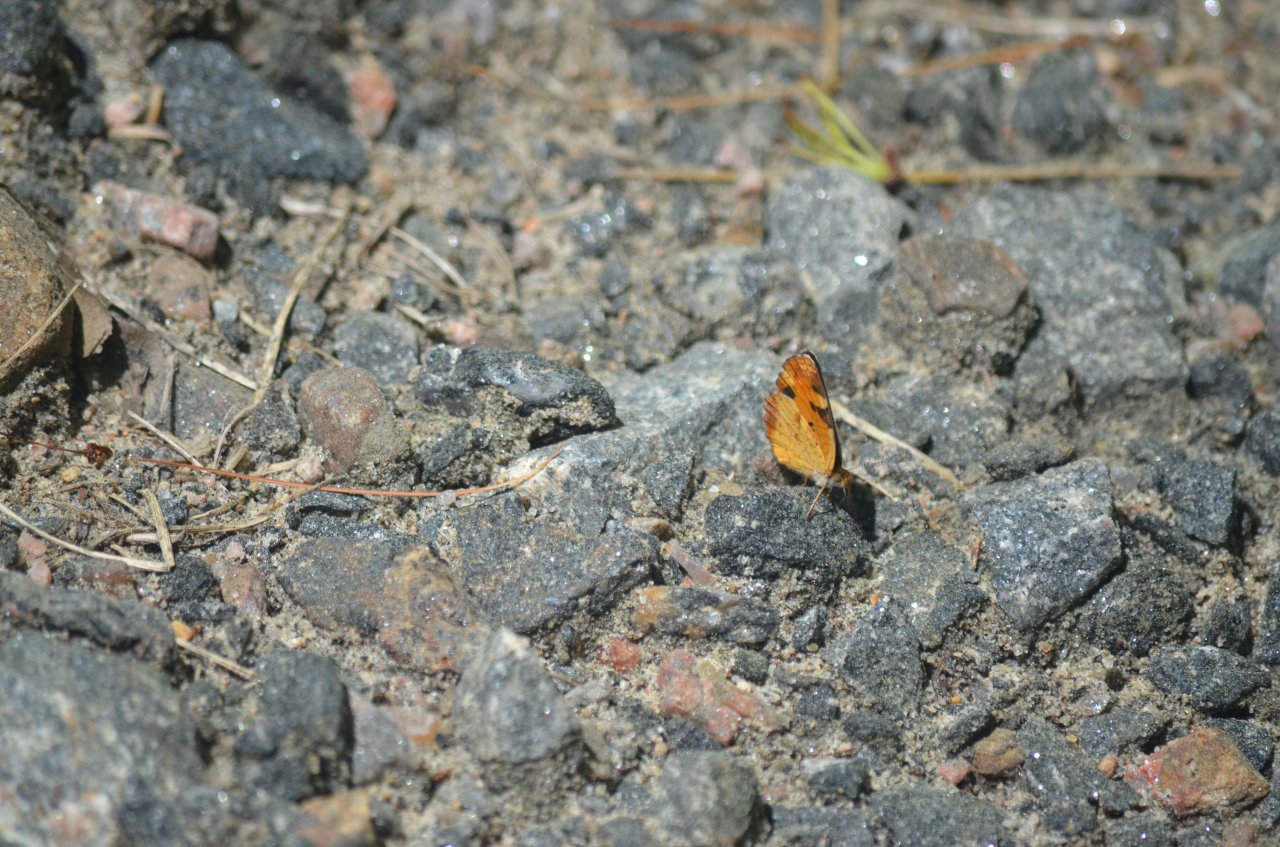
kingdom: Animalia
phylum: Arthropoda
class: Insecta
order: Lepidoptera
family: Nymphalidae
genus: Phyciodes
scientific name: Phyciodes tharos
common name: Northern Crescent
